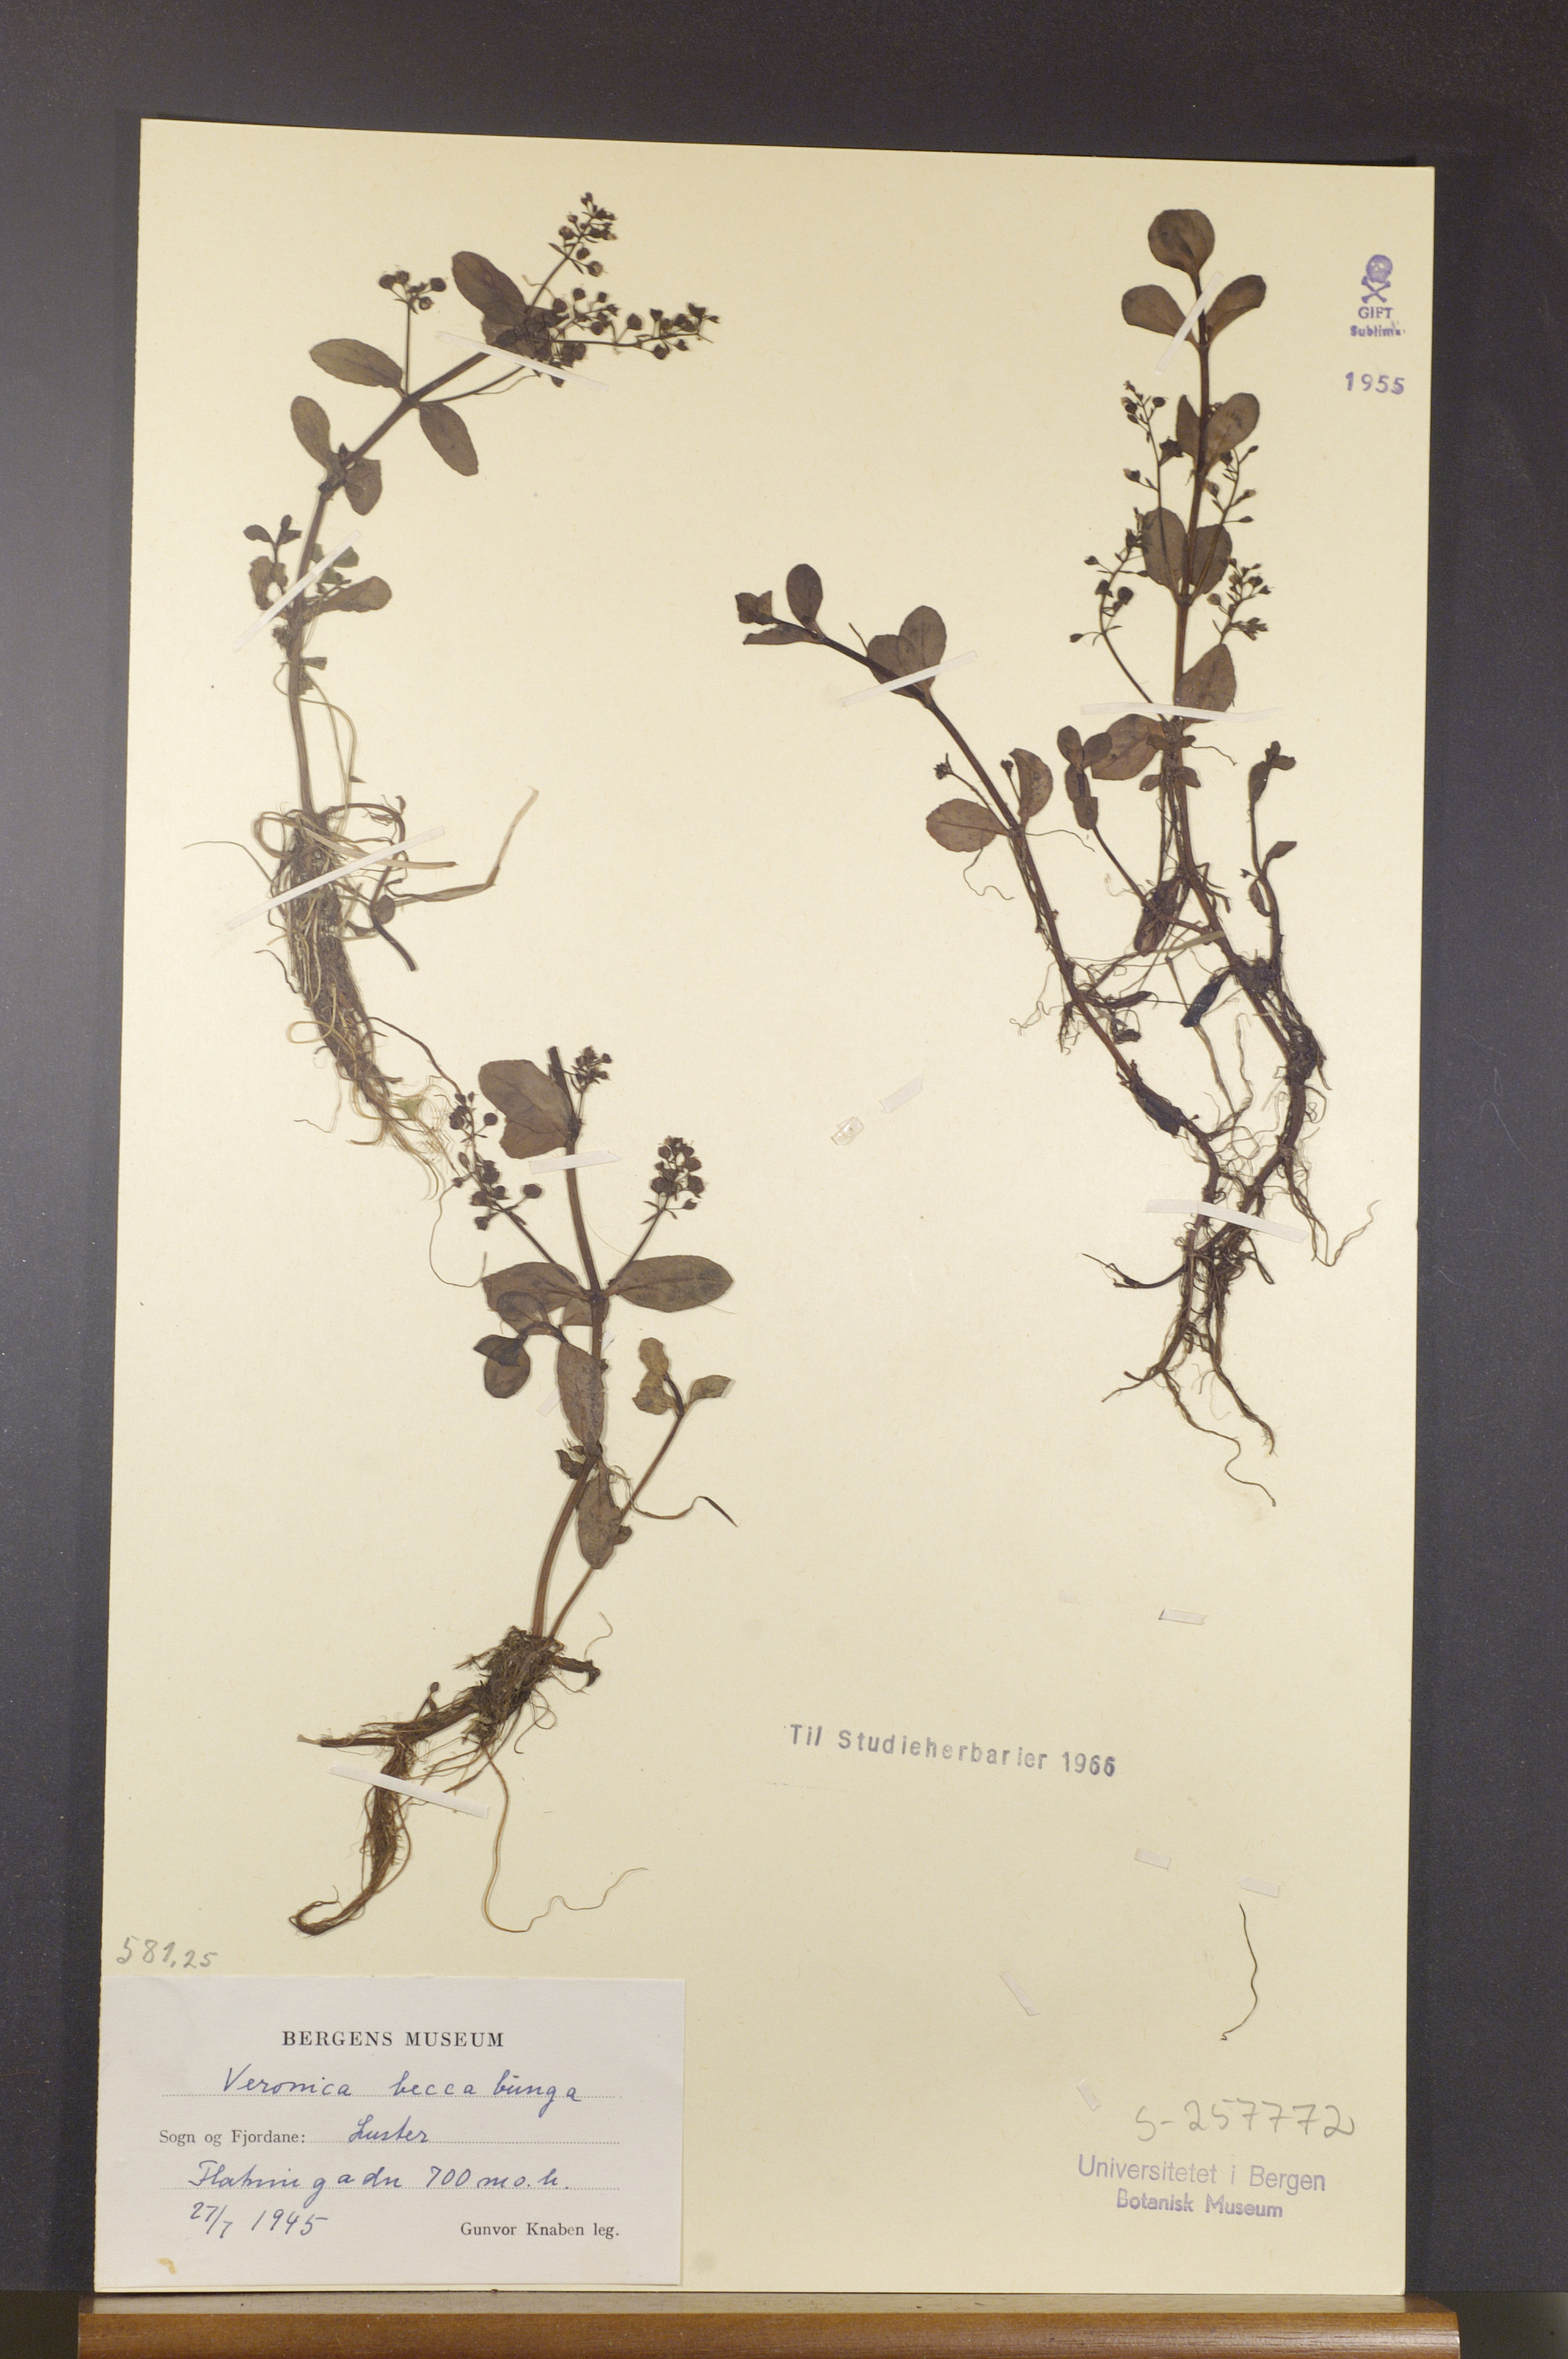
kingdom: Plantae
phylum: Tracheophyta
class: Magnoliopsida
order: Lamiales
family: Plantaginaceae
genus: Veronica
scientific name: Veronica beccabunga
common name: Brooklime
